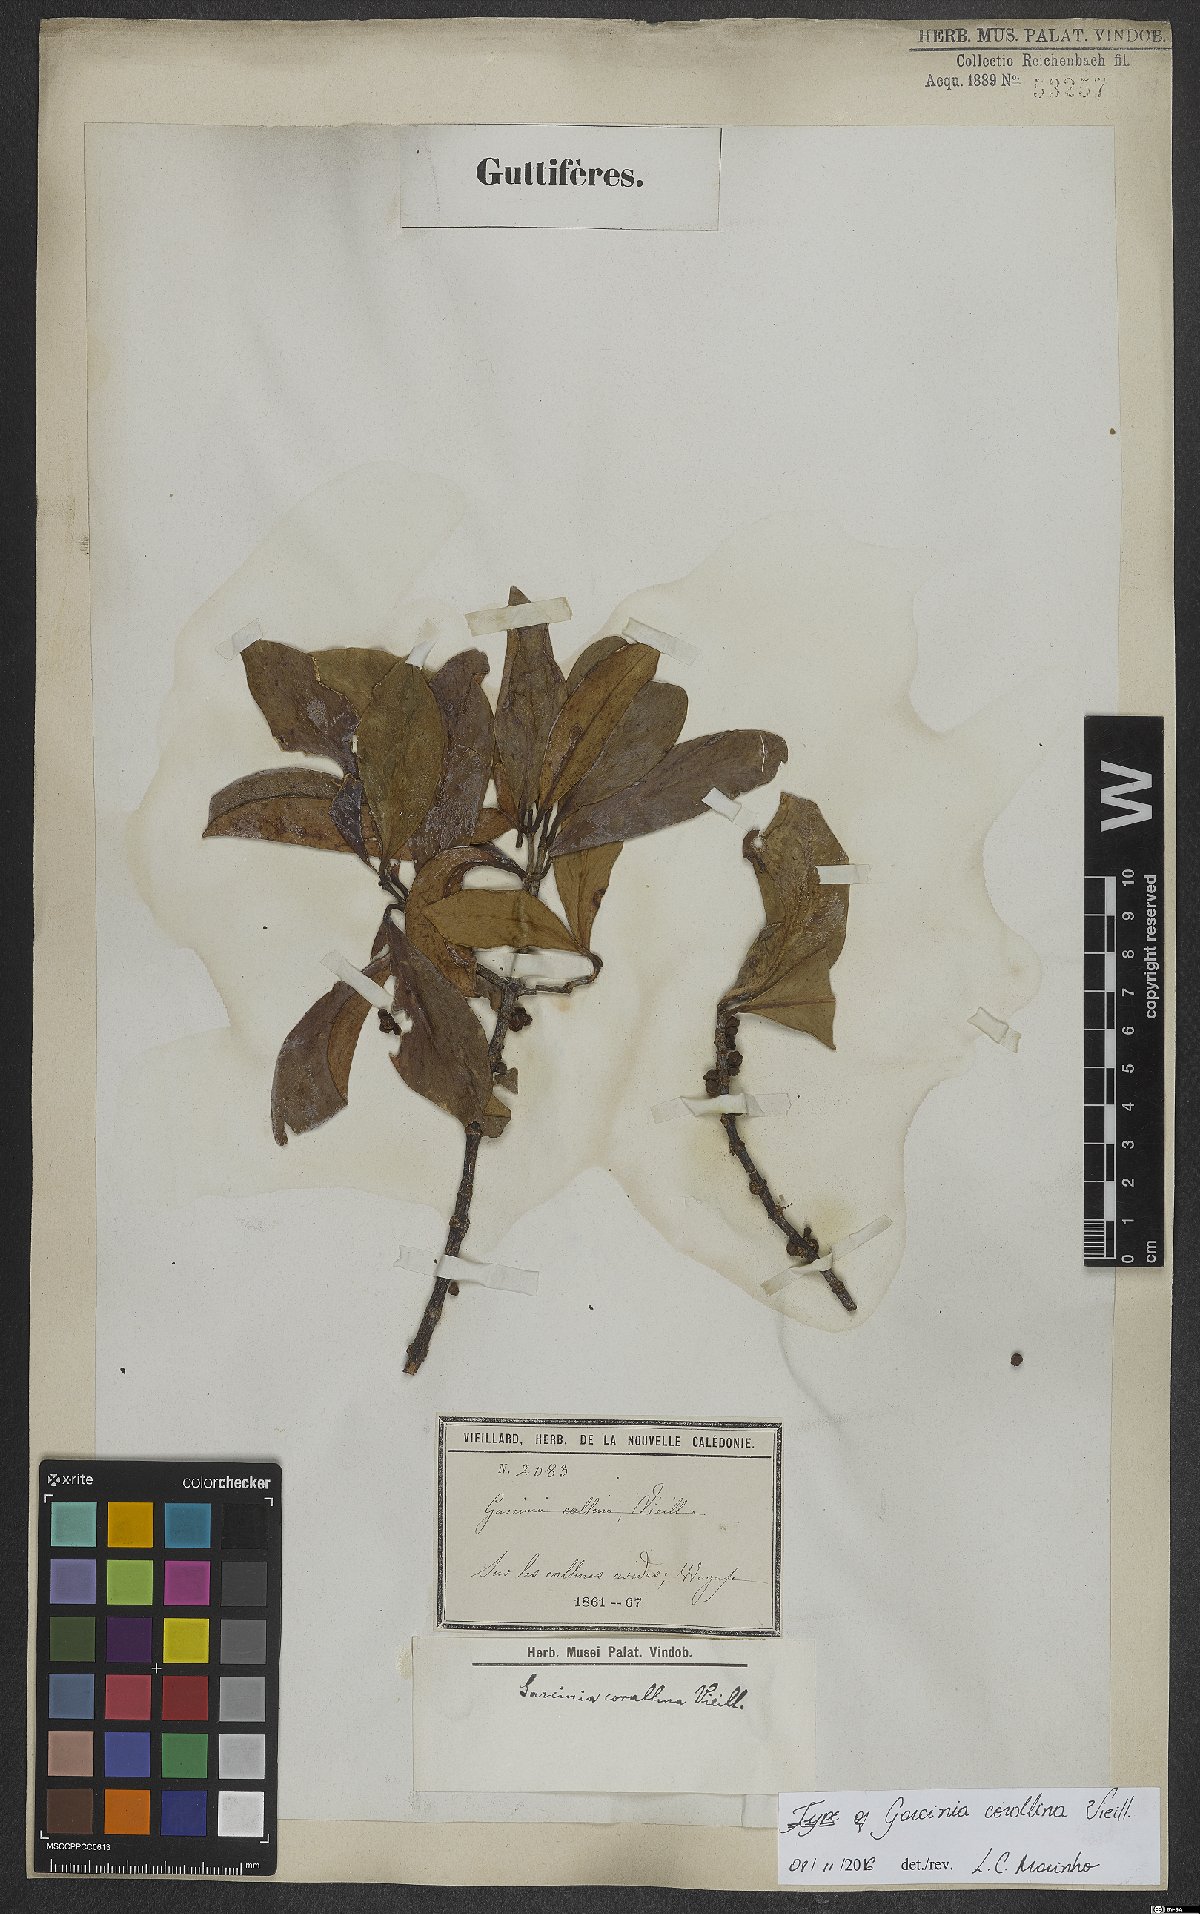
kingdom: Plantae
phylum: Tracheophyta
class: Magnoliopsida
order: Malpighiales
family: Clusiaceae
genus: Garcinia
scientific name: Garcinia corallina
